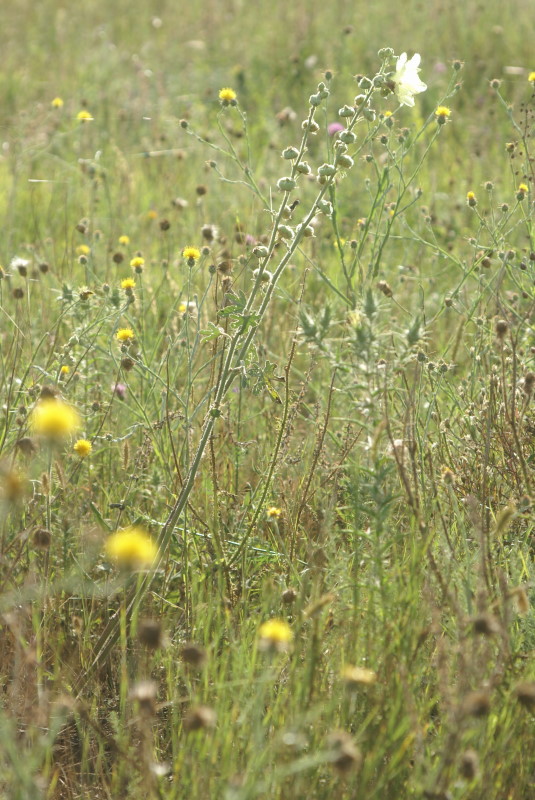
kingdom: Plantae
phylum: Tracheophyta
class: Magnoliopsida
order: Malvales
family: Malvaceae
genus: Alcea
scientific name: Alcea rugosa
